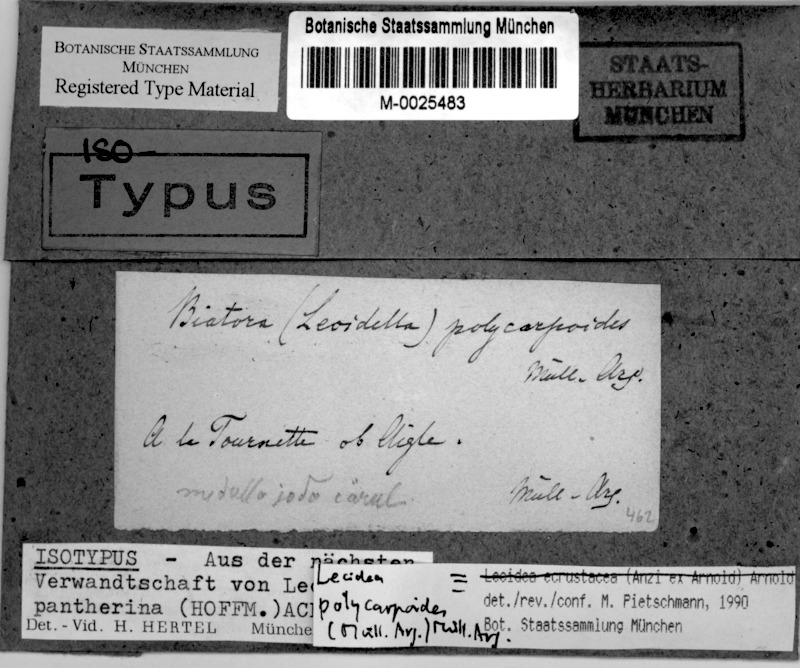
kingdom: Fungi
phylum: Ascomycota
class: Lecanoromycetes
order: Lecideales
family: Lecideaceae
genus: Lecidea
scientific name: Lecidea
